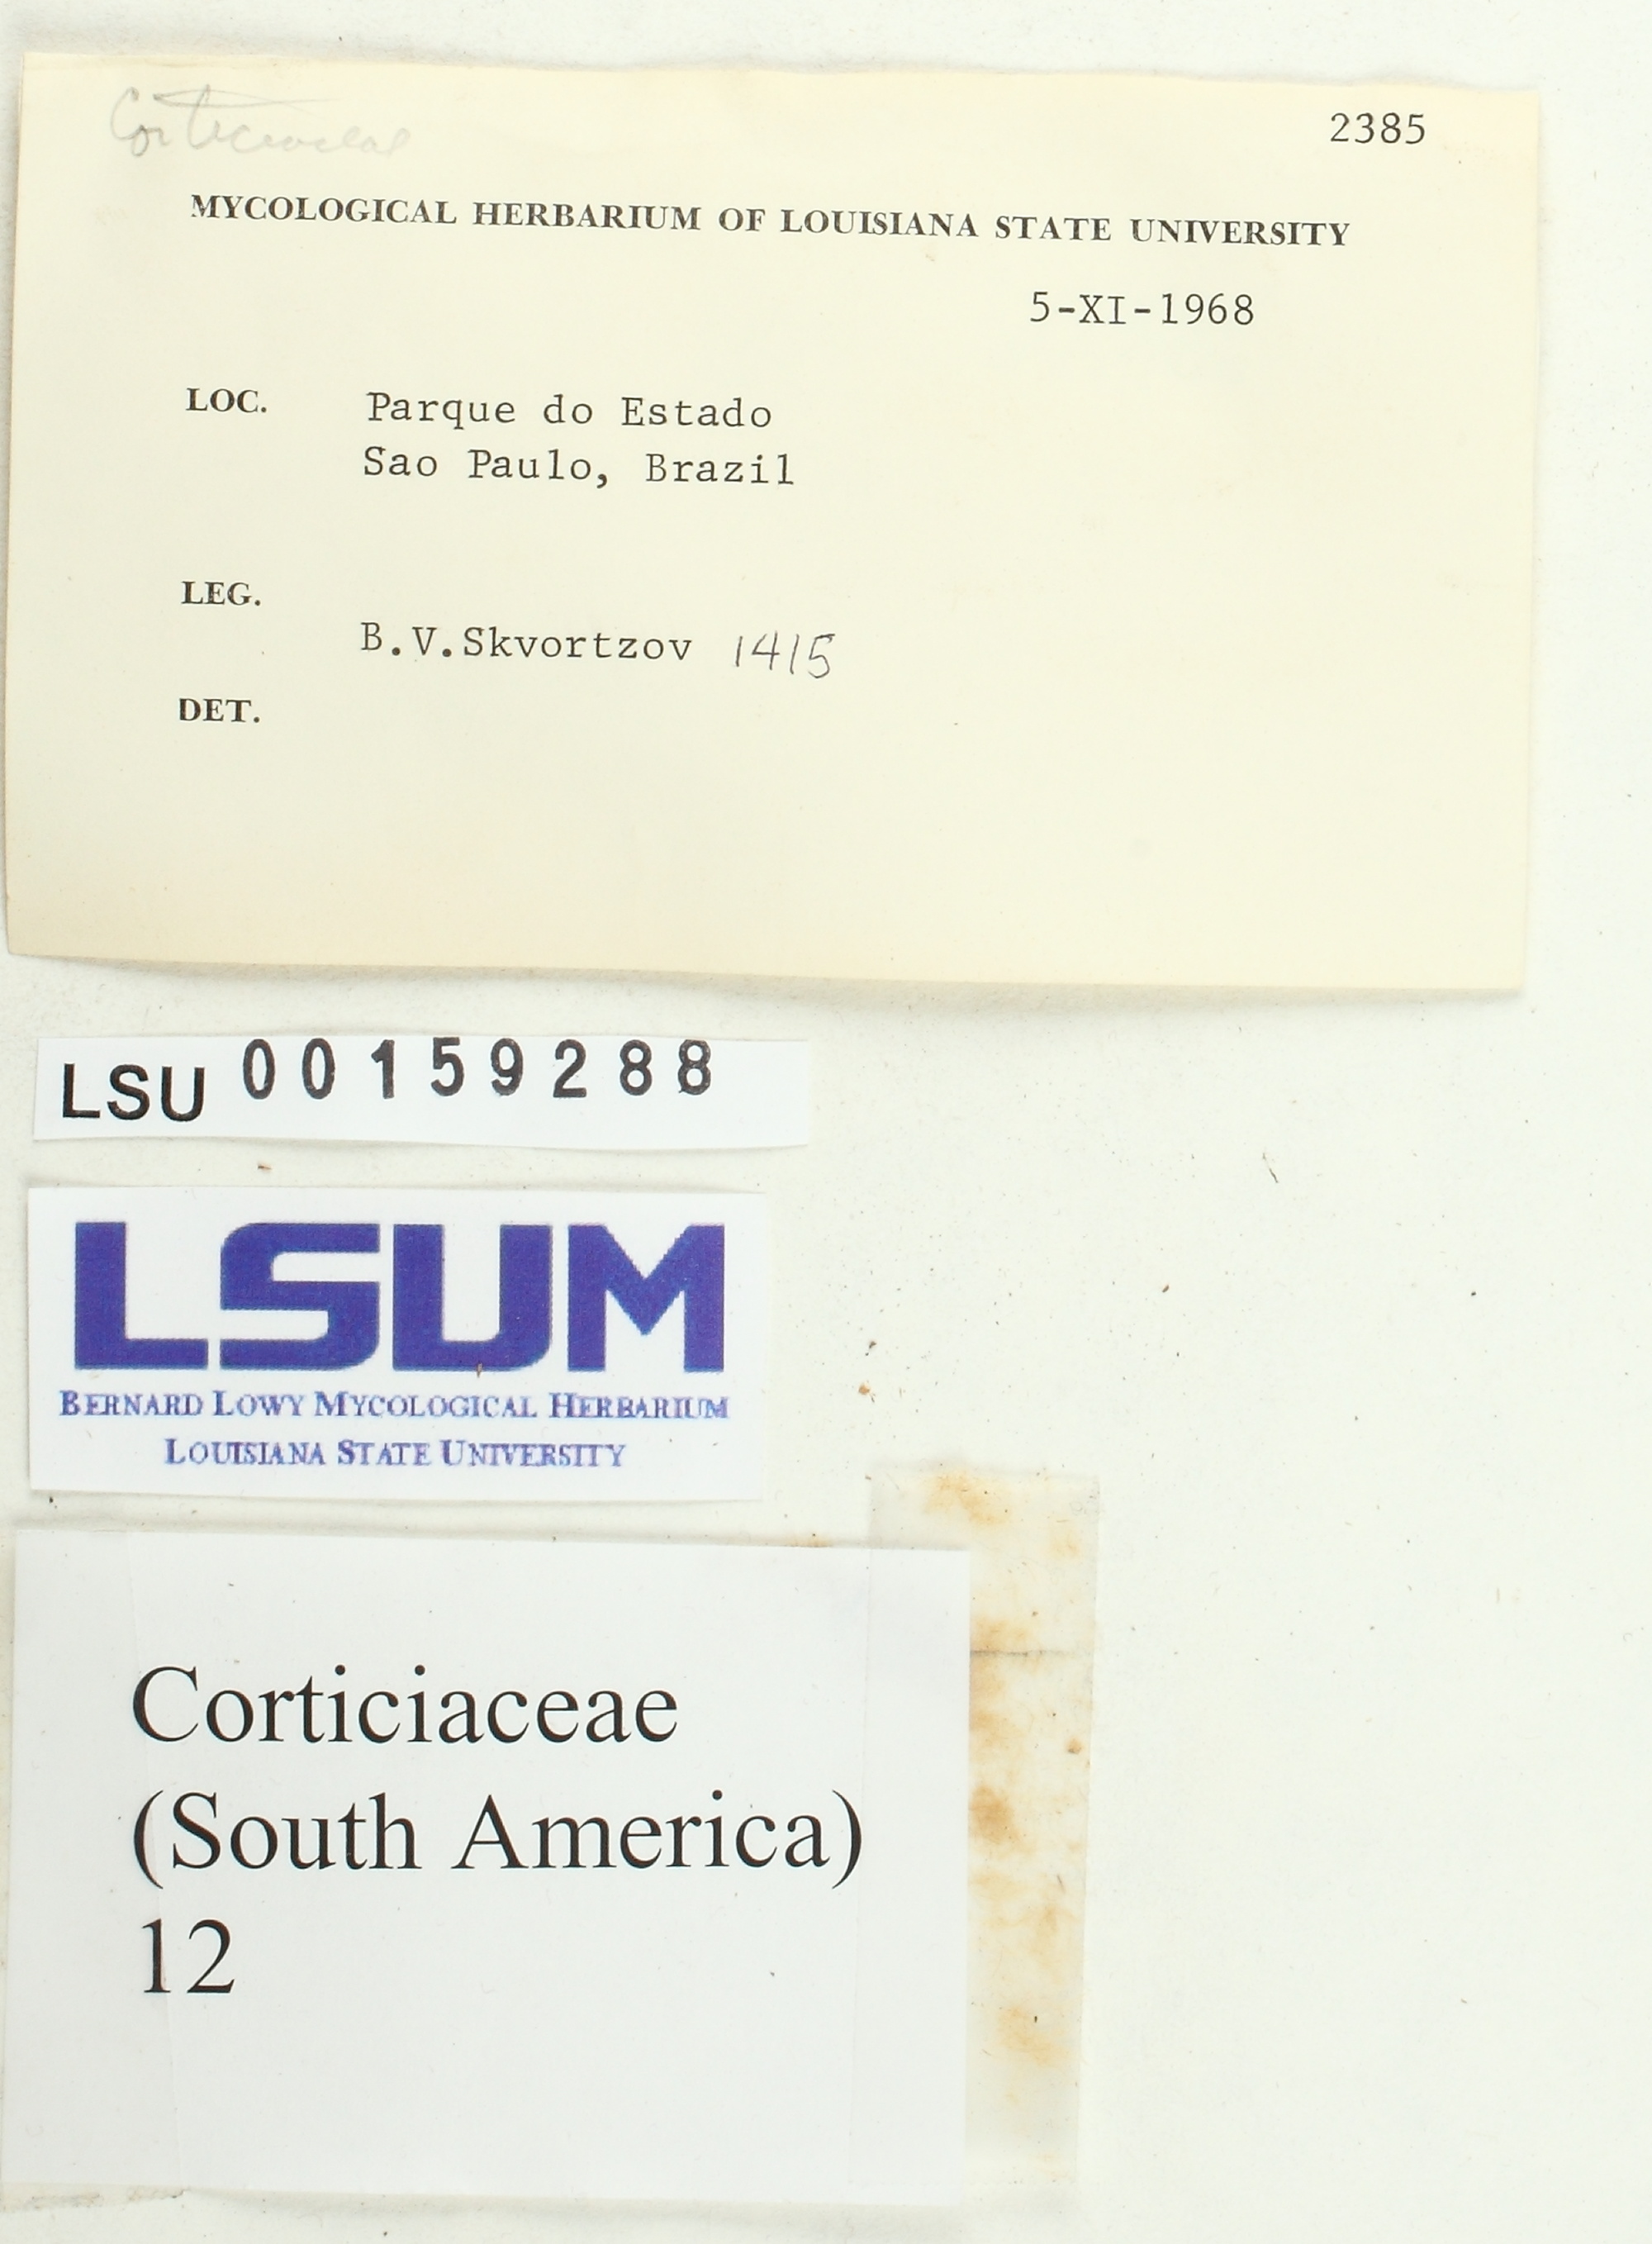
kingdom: Fungi
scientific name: Fungi
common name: Fungi
